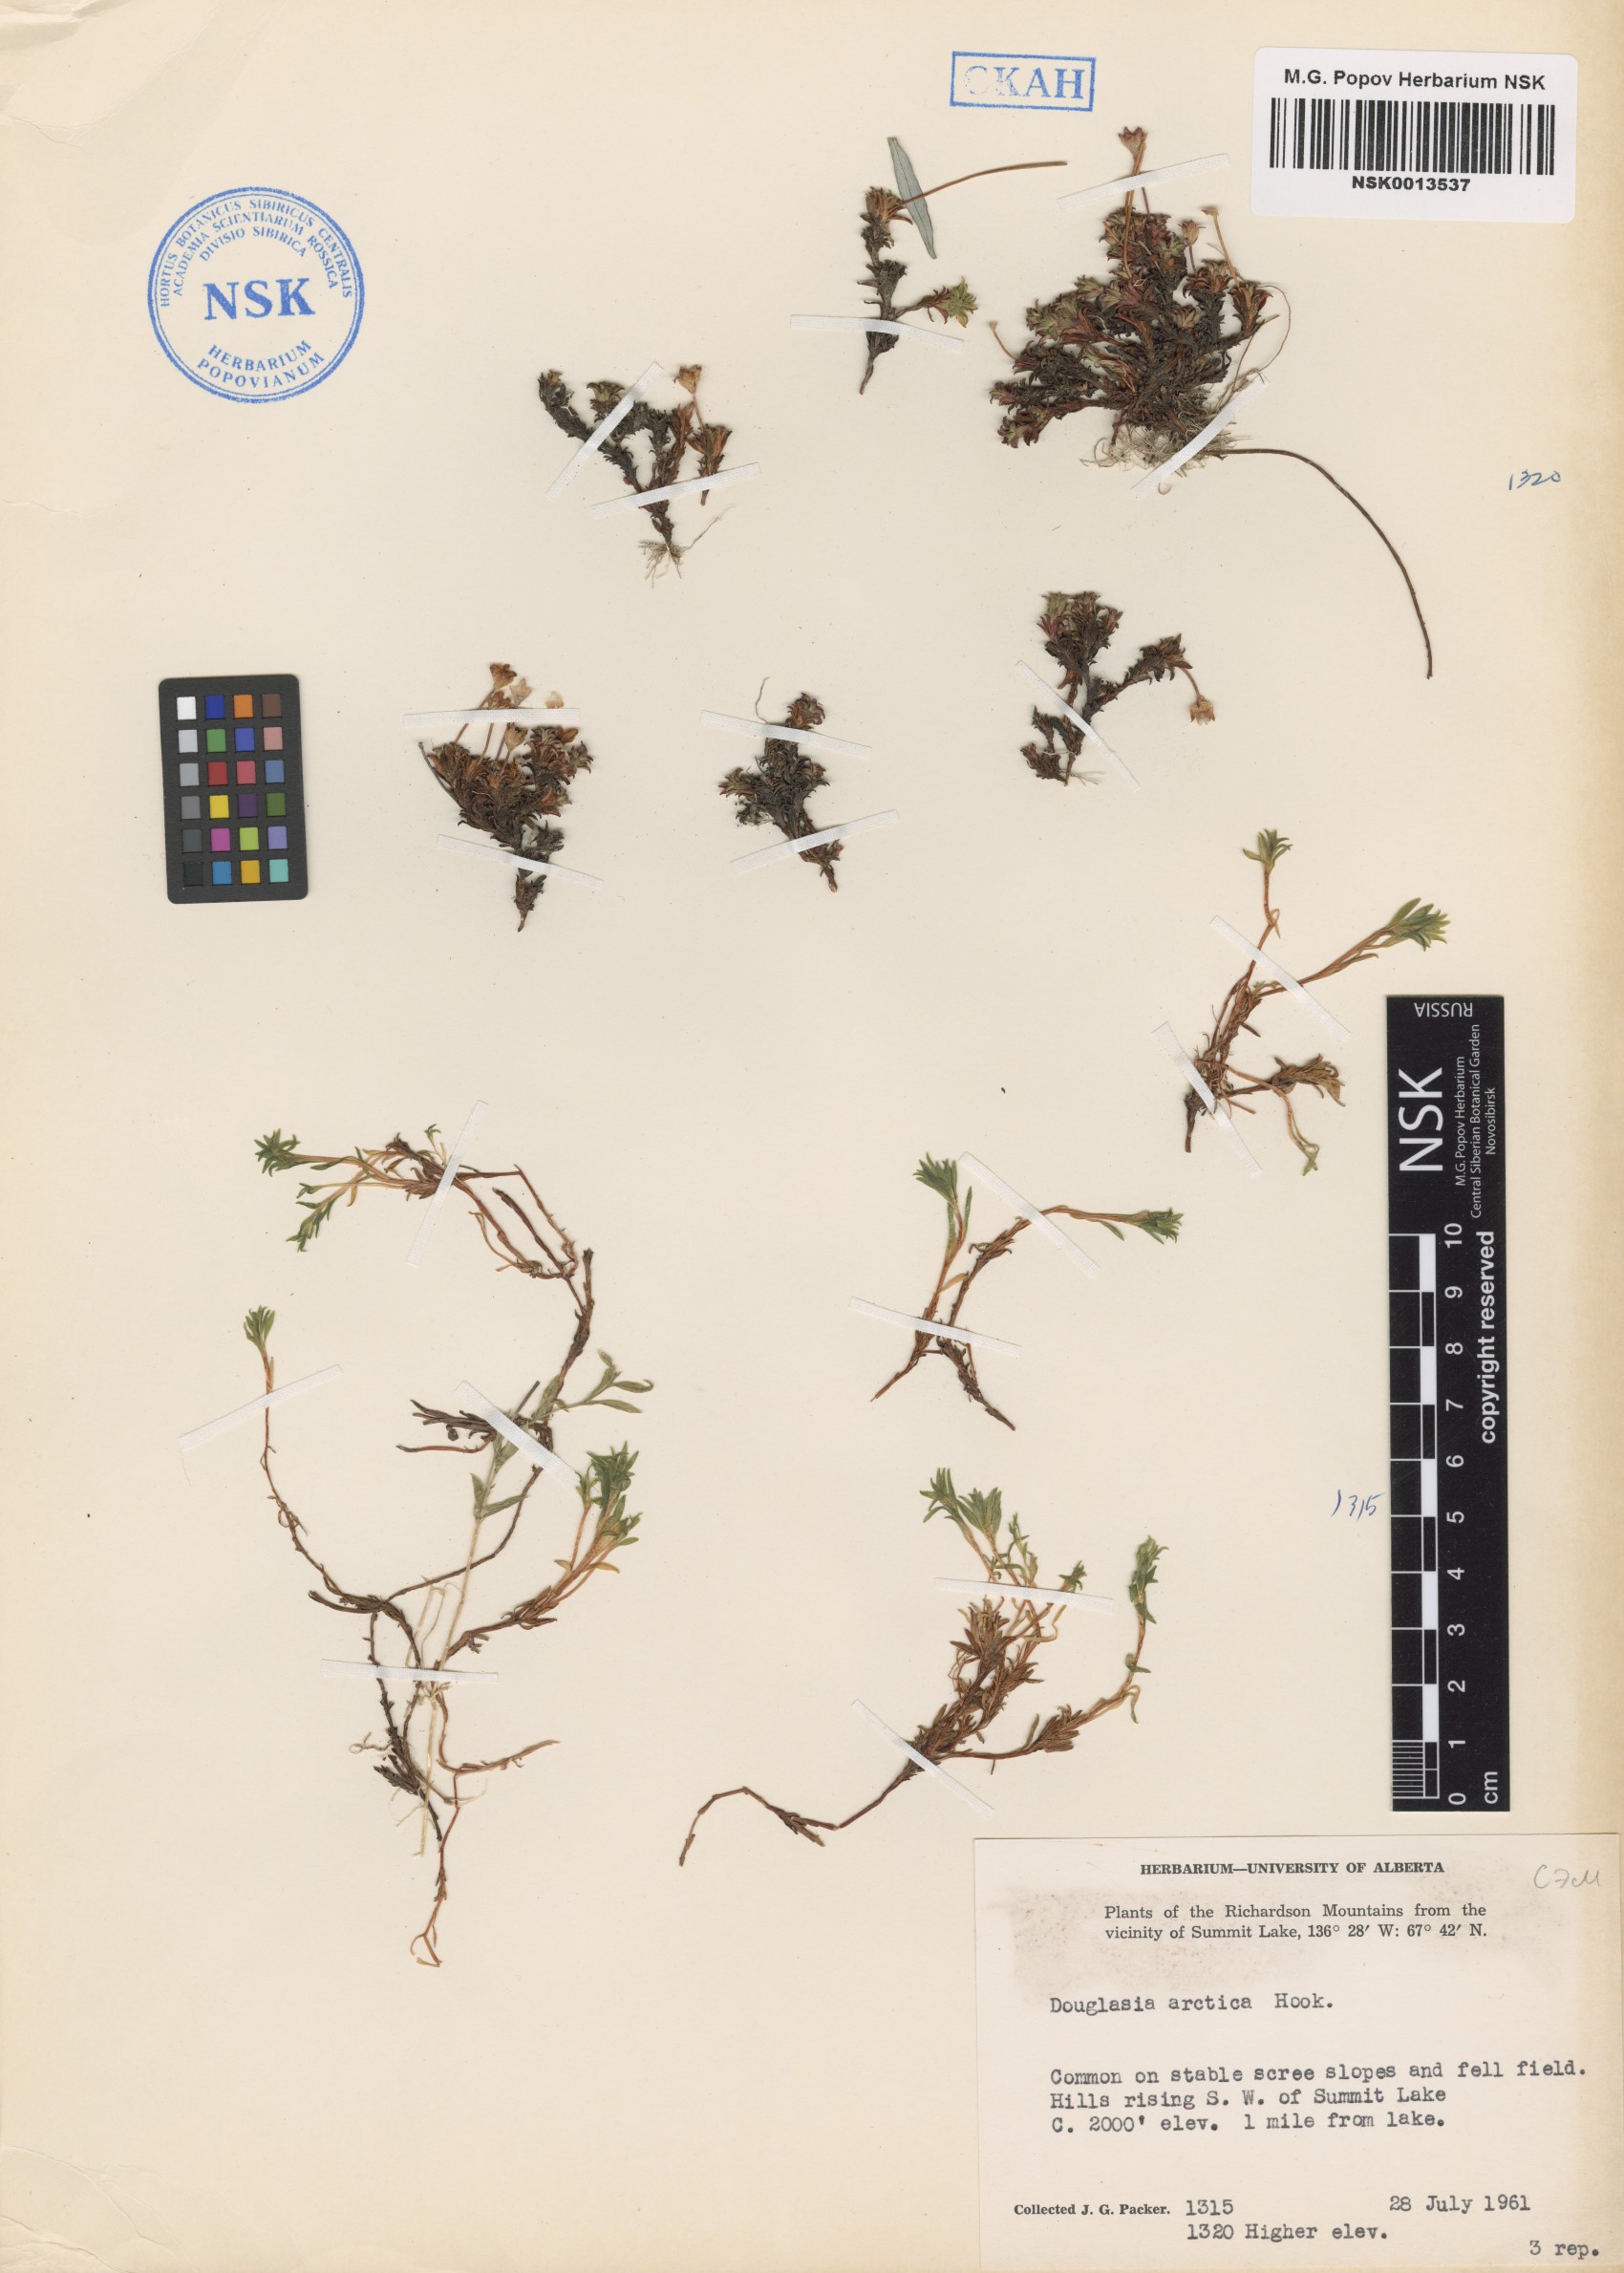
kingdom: Plantae
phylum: Tracheophyta
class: Magnoliopsida
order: Ericales
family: Primulaceae
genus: Androsace
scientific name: Androsace americana
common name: Mackenzie river dwarf-primrose
